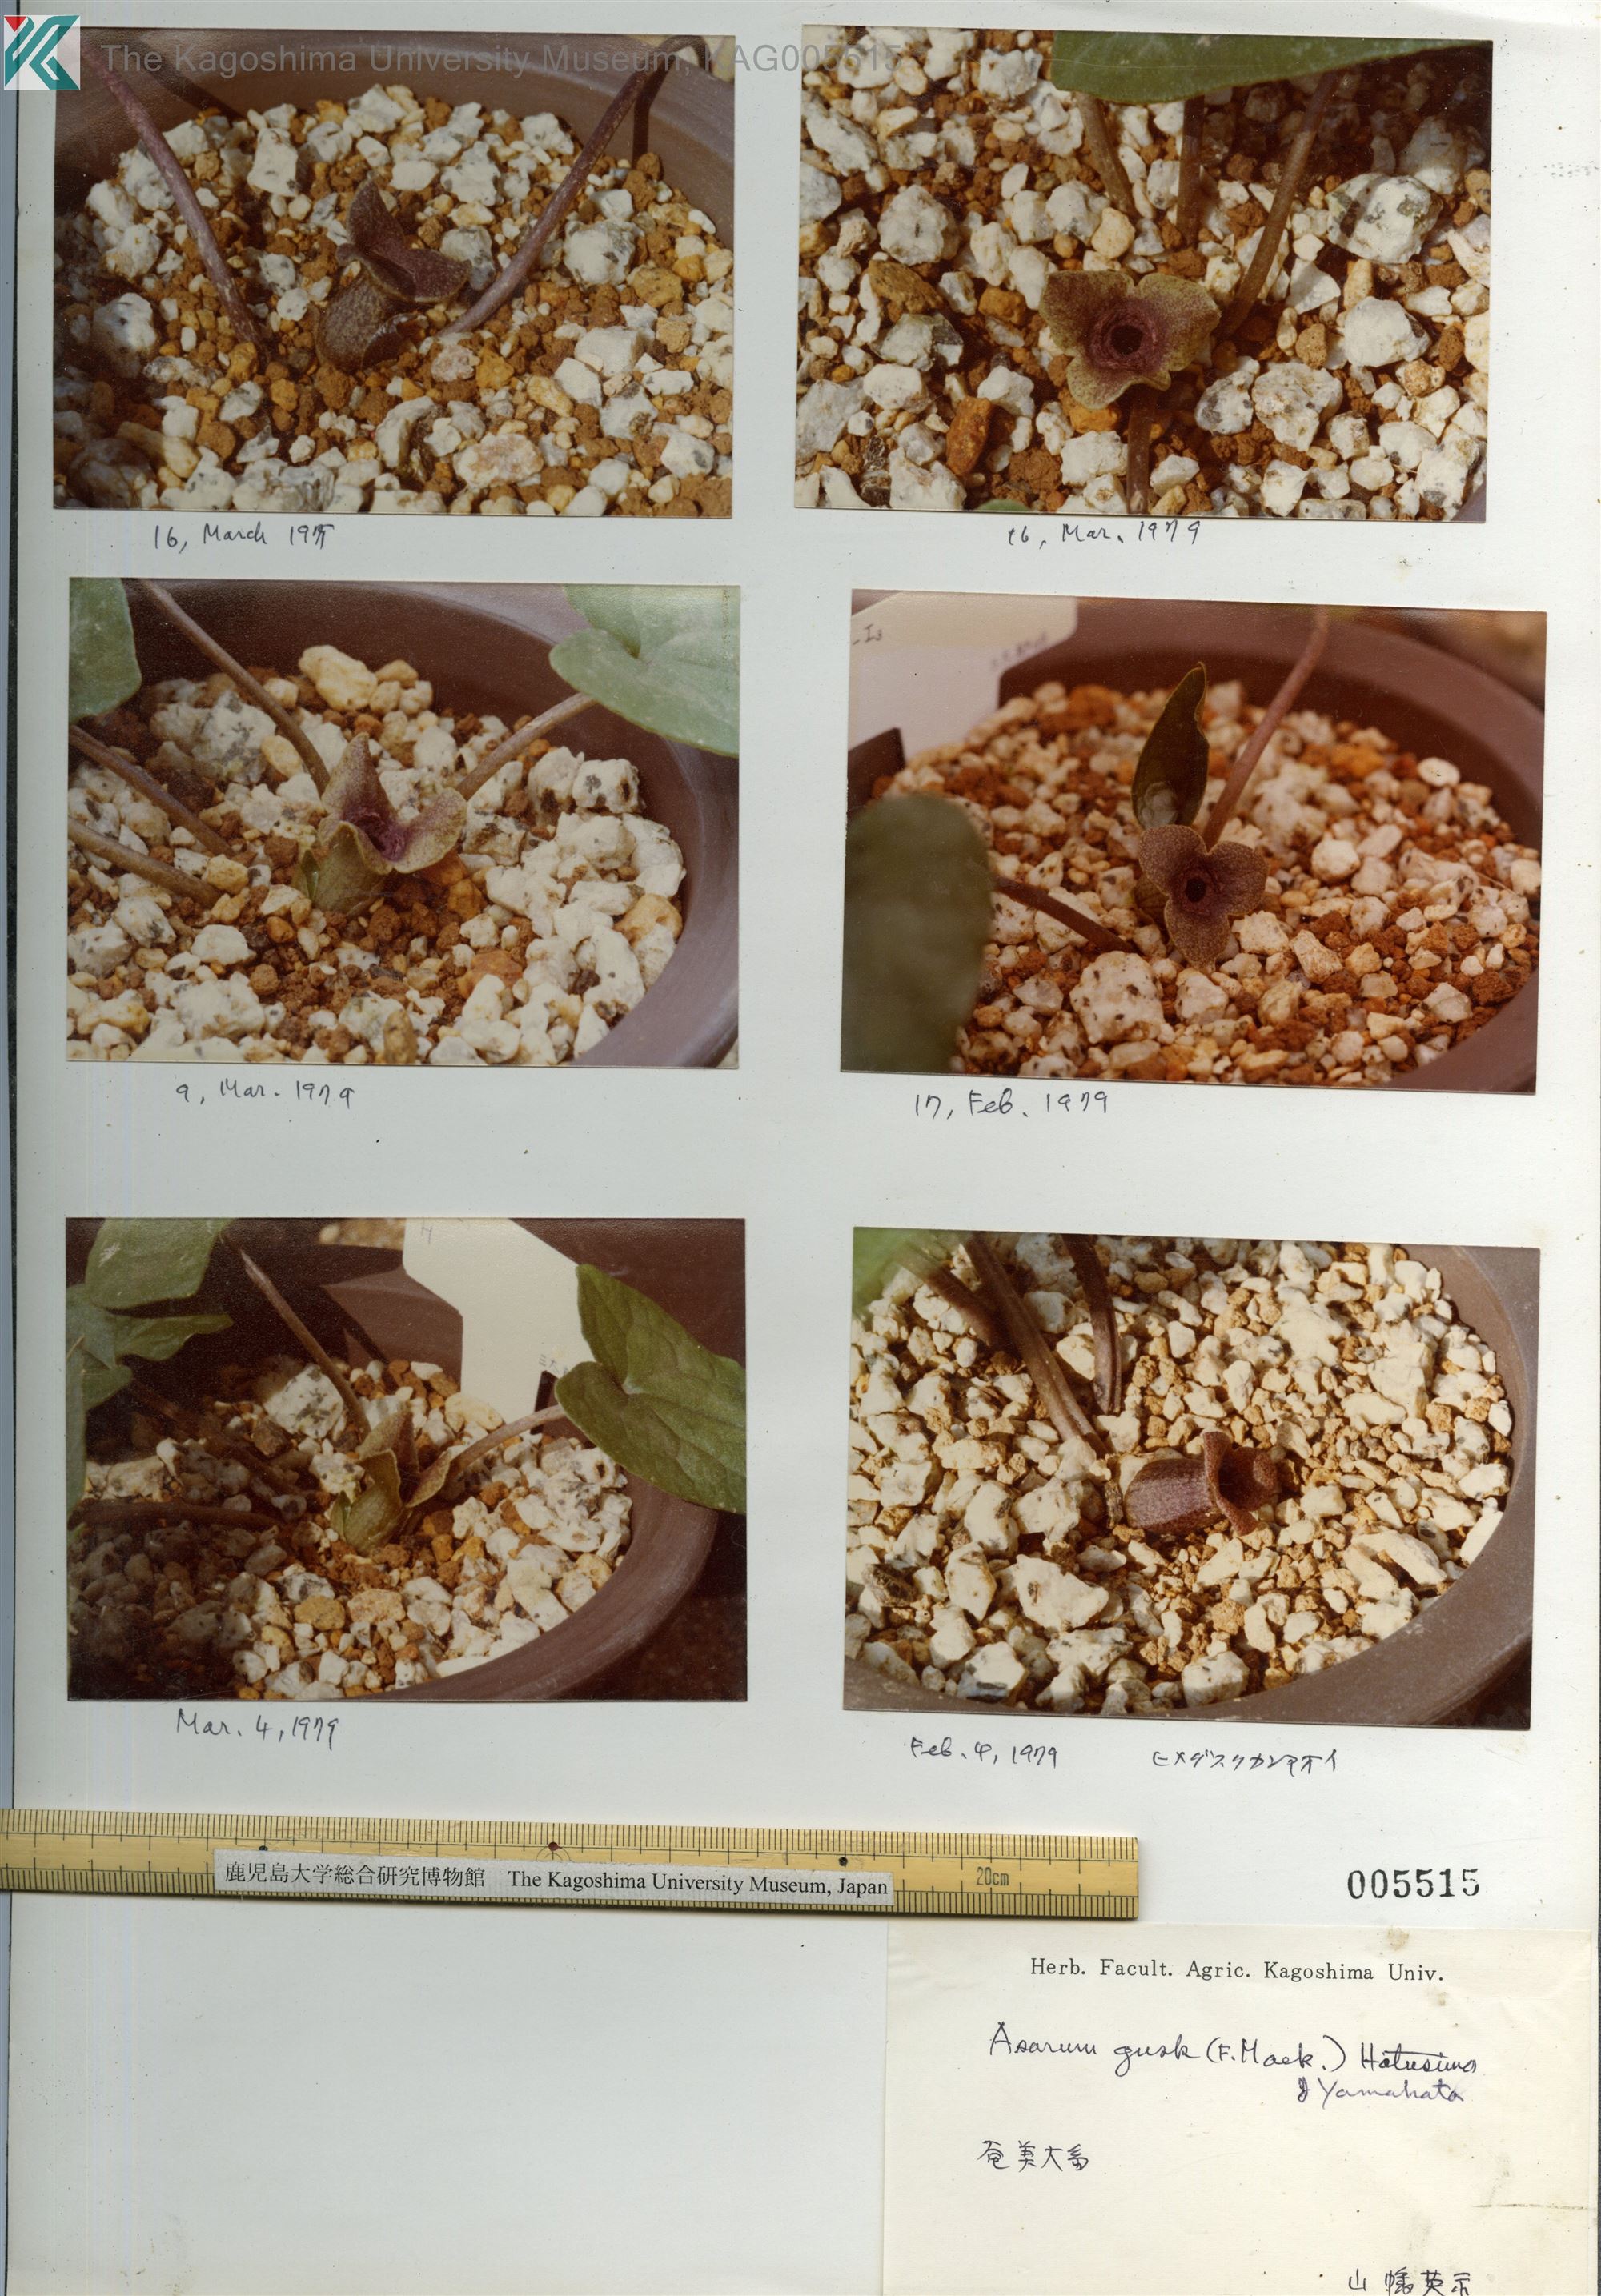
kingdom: Plantae
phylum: Tracheophyta
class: Magnoliopsida
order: Piperales
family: Aristolochiaceae
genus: Asarum
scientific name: Asarum gusk
